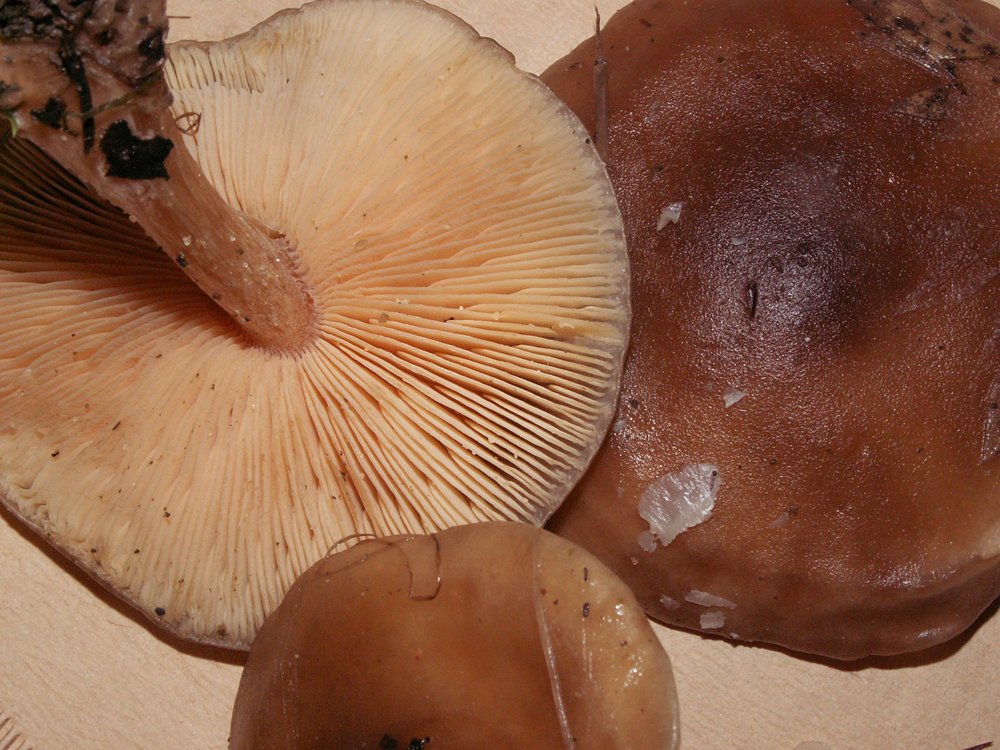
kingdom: Fungi
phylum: Basidiomycota
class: Agaricomycetes
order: Agaricales
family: Tricholomataceae
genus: Melanoleuca
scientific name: Melanoleuca cognata
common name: gyldengrå munkehat
